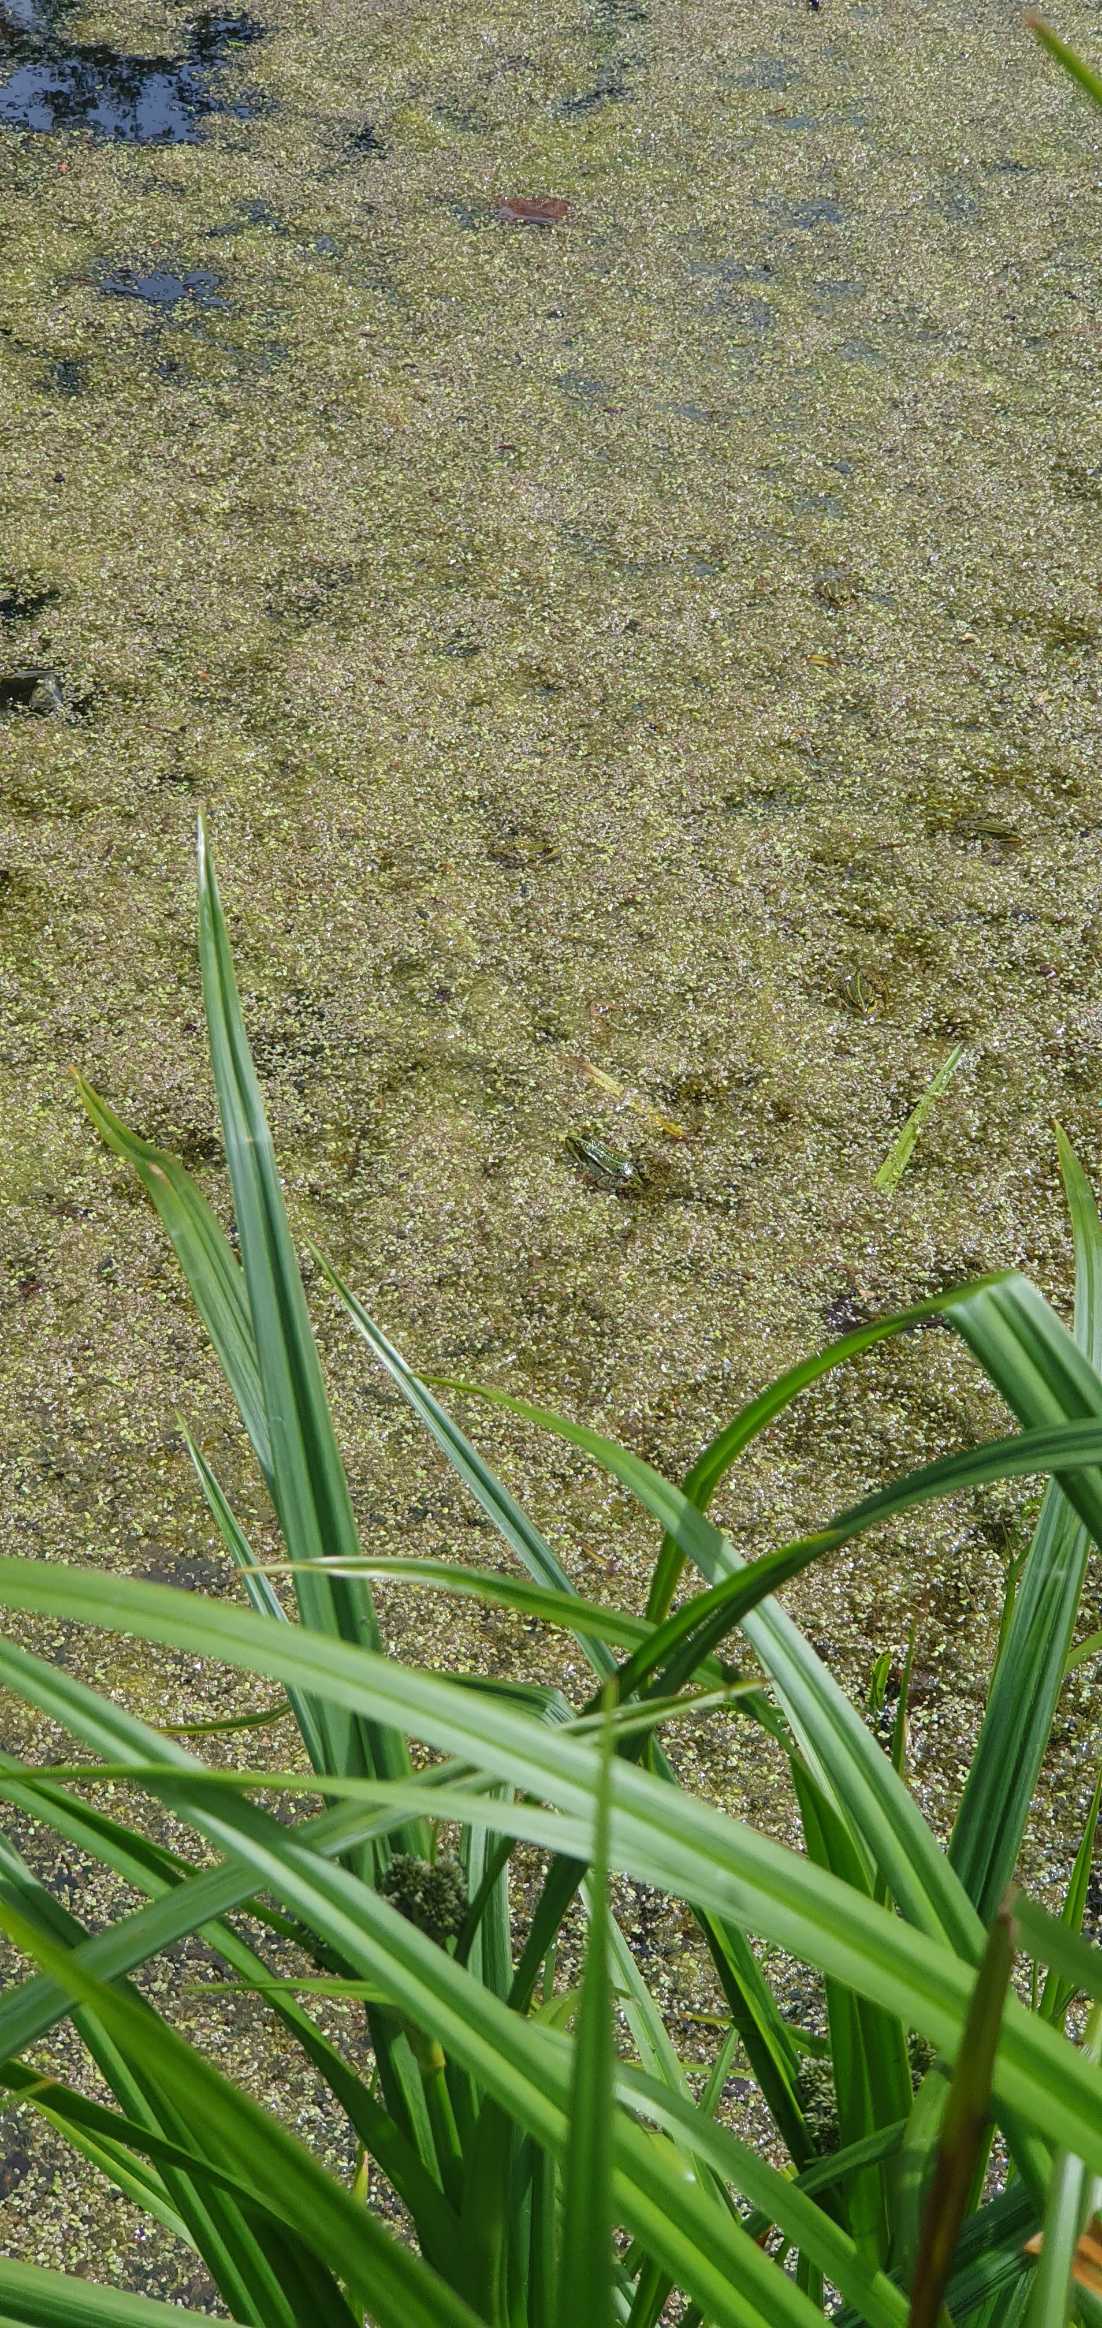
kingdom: Animalia
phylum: Chordata
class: Amphibia
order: Anura
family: Ranidae
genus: Pelophylax
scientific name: Pelophylax lessonae
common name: Grøn frø
